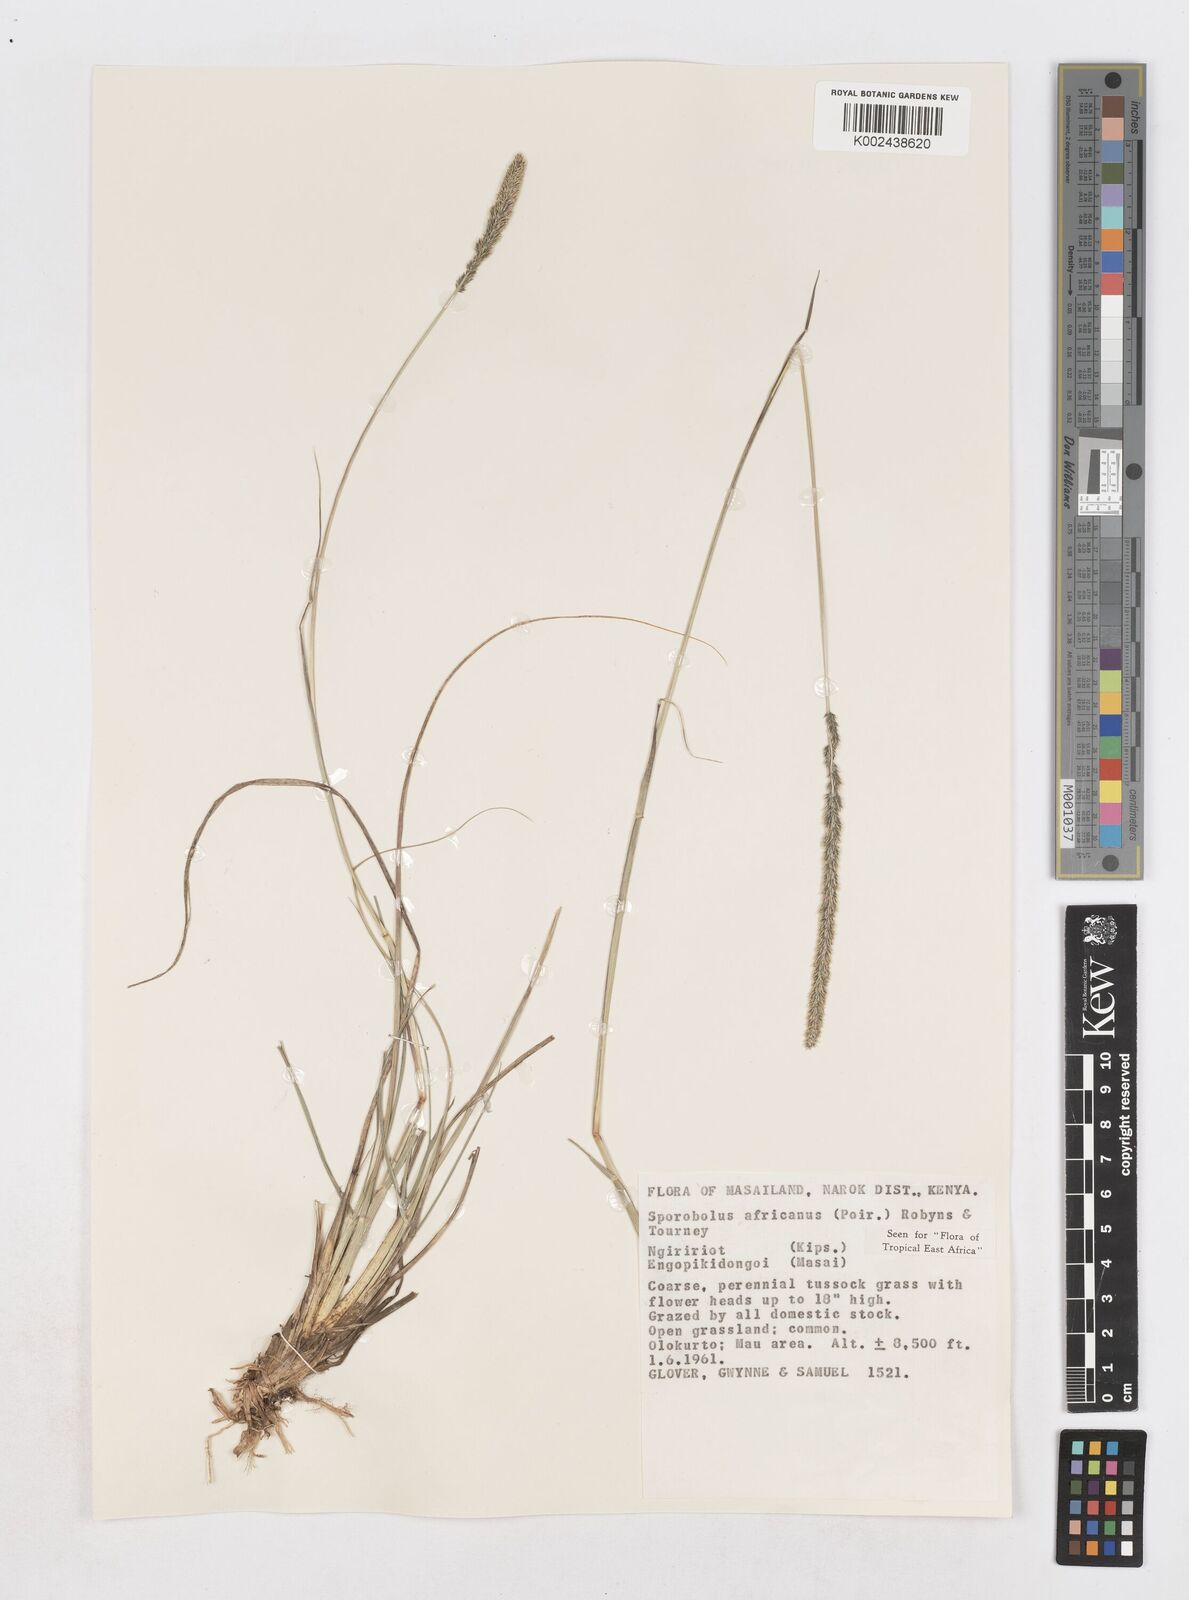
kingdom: Plantae
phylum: Tracheophyta
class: Liliopsida
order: Poales
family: Poaceae
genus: Sporobolus
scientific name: Sporobolus africanus
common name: African dropseed
